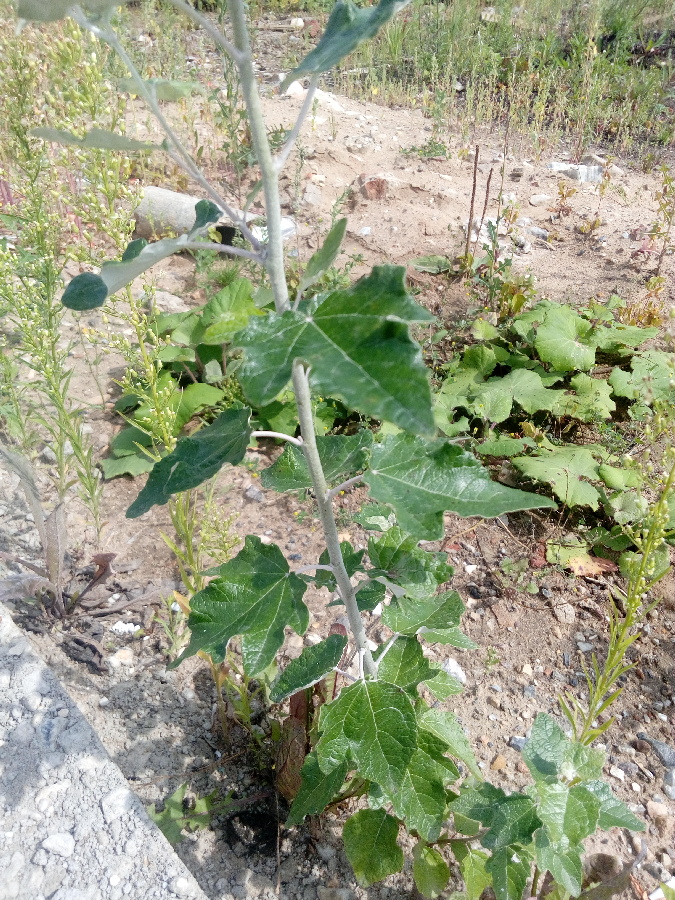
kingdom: Plantae
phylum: Tracheophyta
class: Magnoliopsida
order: Malpighiales
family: Salicaceae
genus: Populus
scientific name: Populus alba
